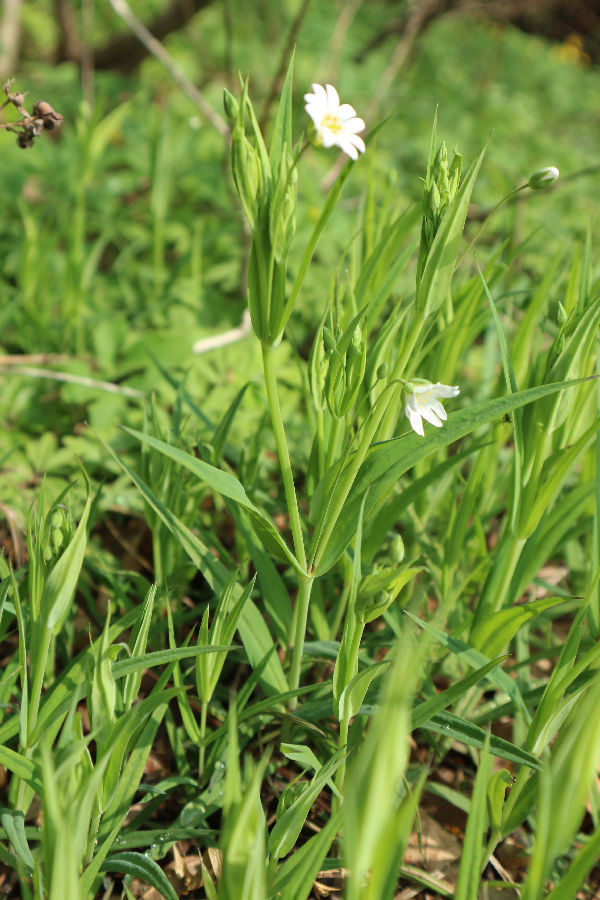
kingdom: Plantae
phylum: Tracheophyta
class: Magnoliopsida
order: Caryophyllales
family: Caryophyllaceae
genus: Rabelera
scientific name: Rabelera holostea
